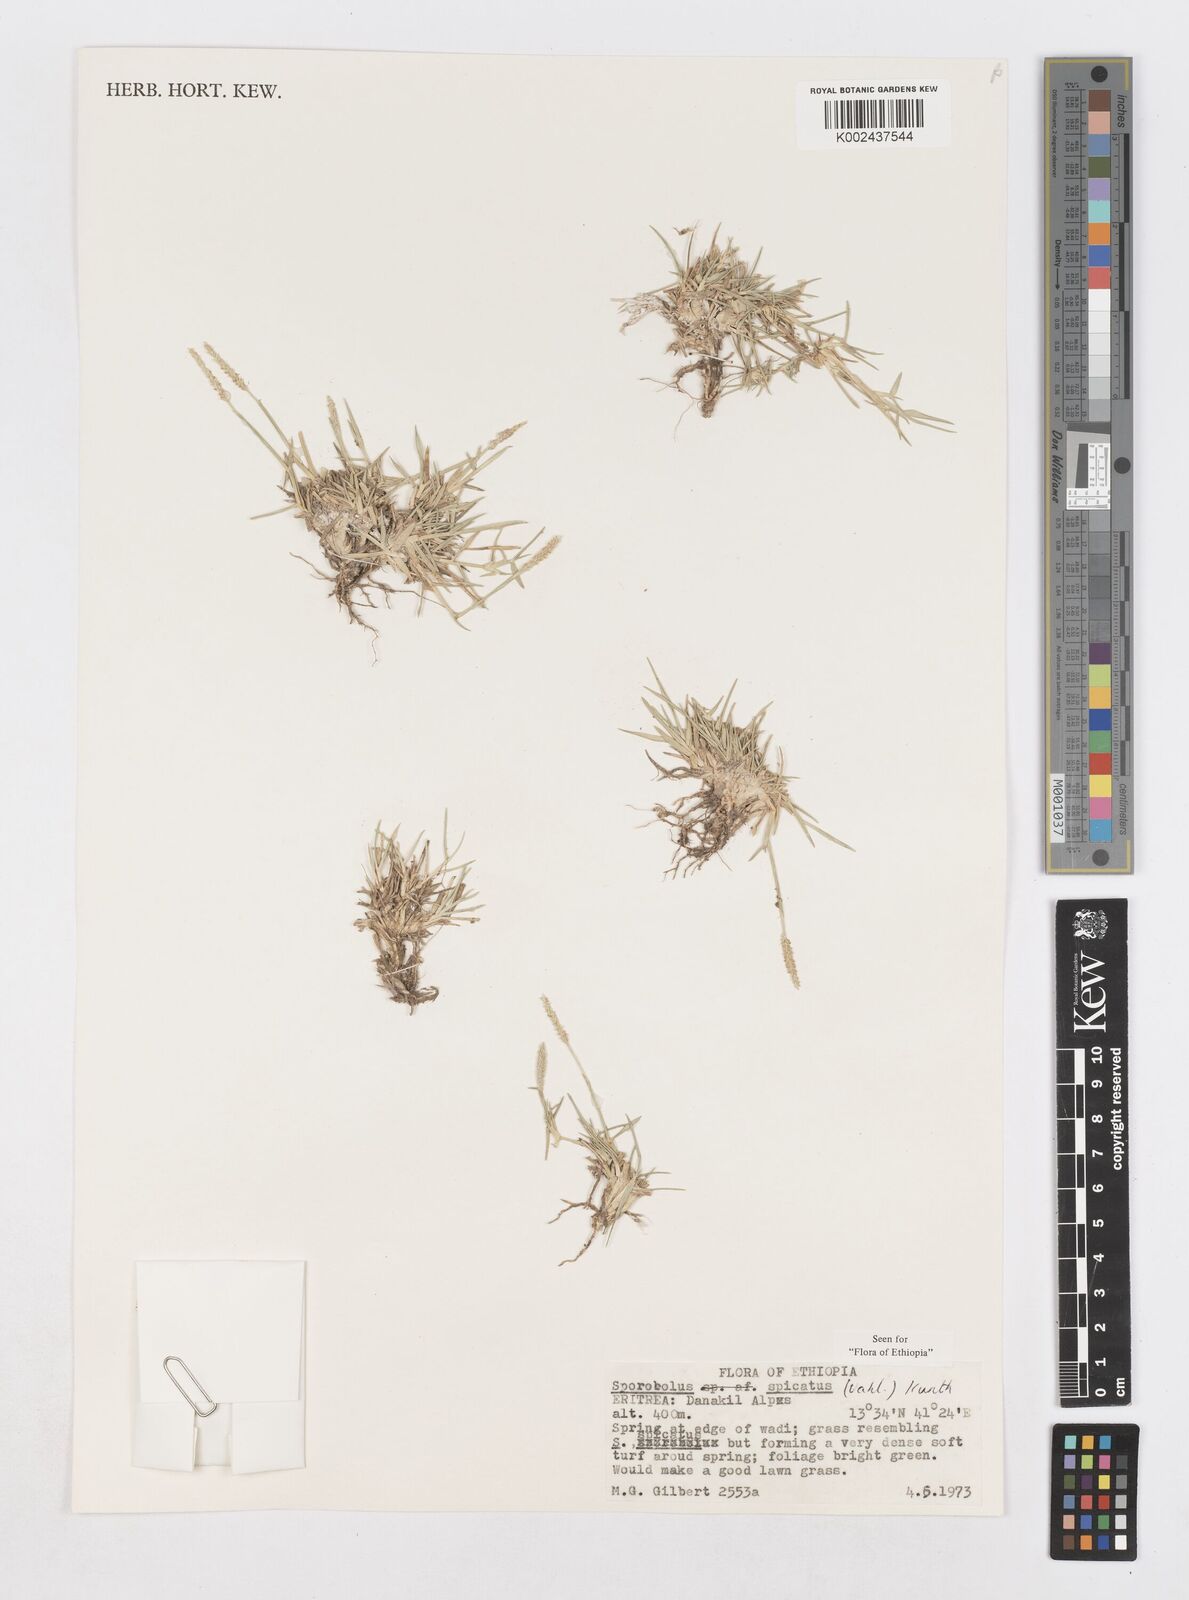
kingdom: Plantae
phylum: Tracheophyta
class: Liliopsida
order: Poales
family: Poaceae
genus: Sporobolus
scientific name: Sporobolus spicatus
